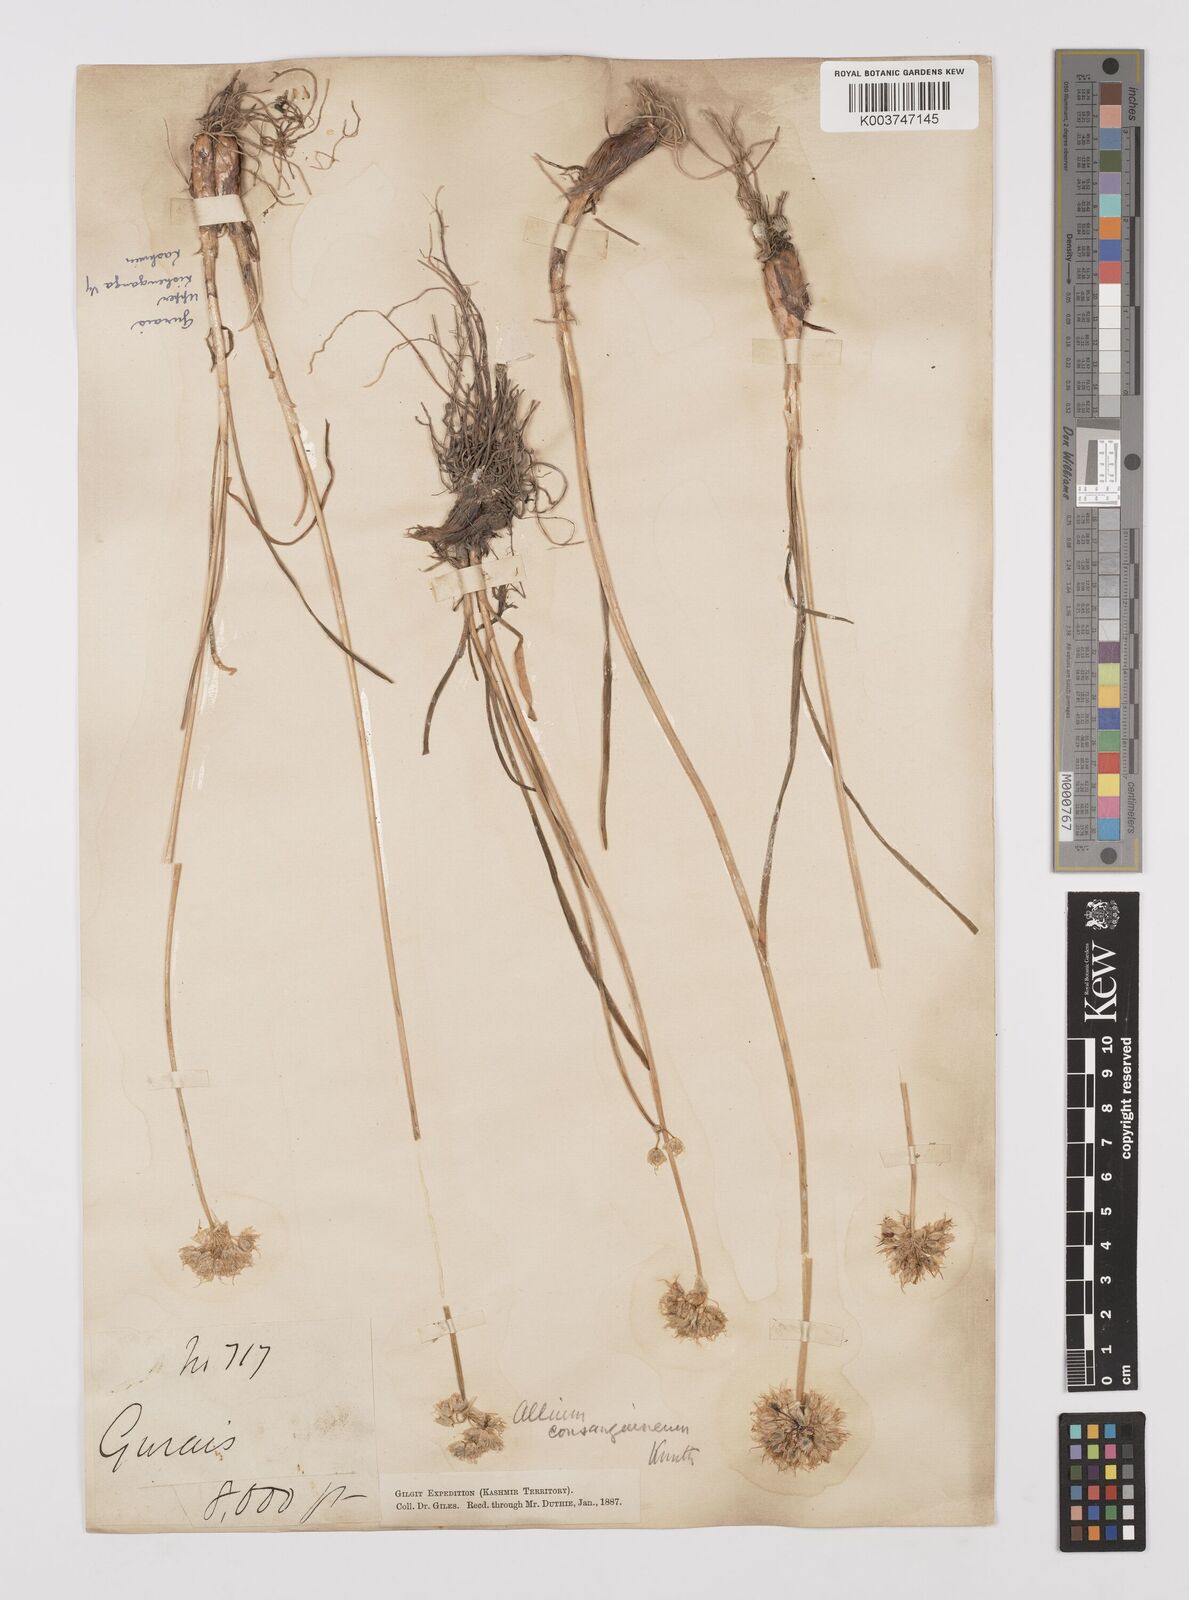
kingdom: Plantae
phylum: Tracheophyta
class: Liliopsida
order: Asparagales
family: Amaryllidaceae
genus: Allium
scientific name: Allium consanguineum
